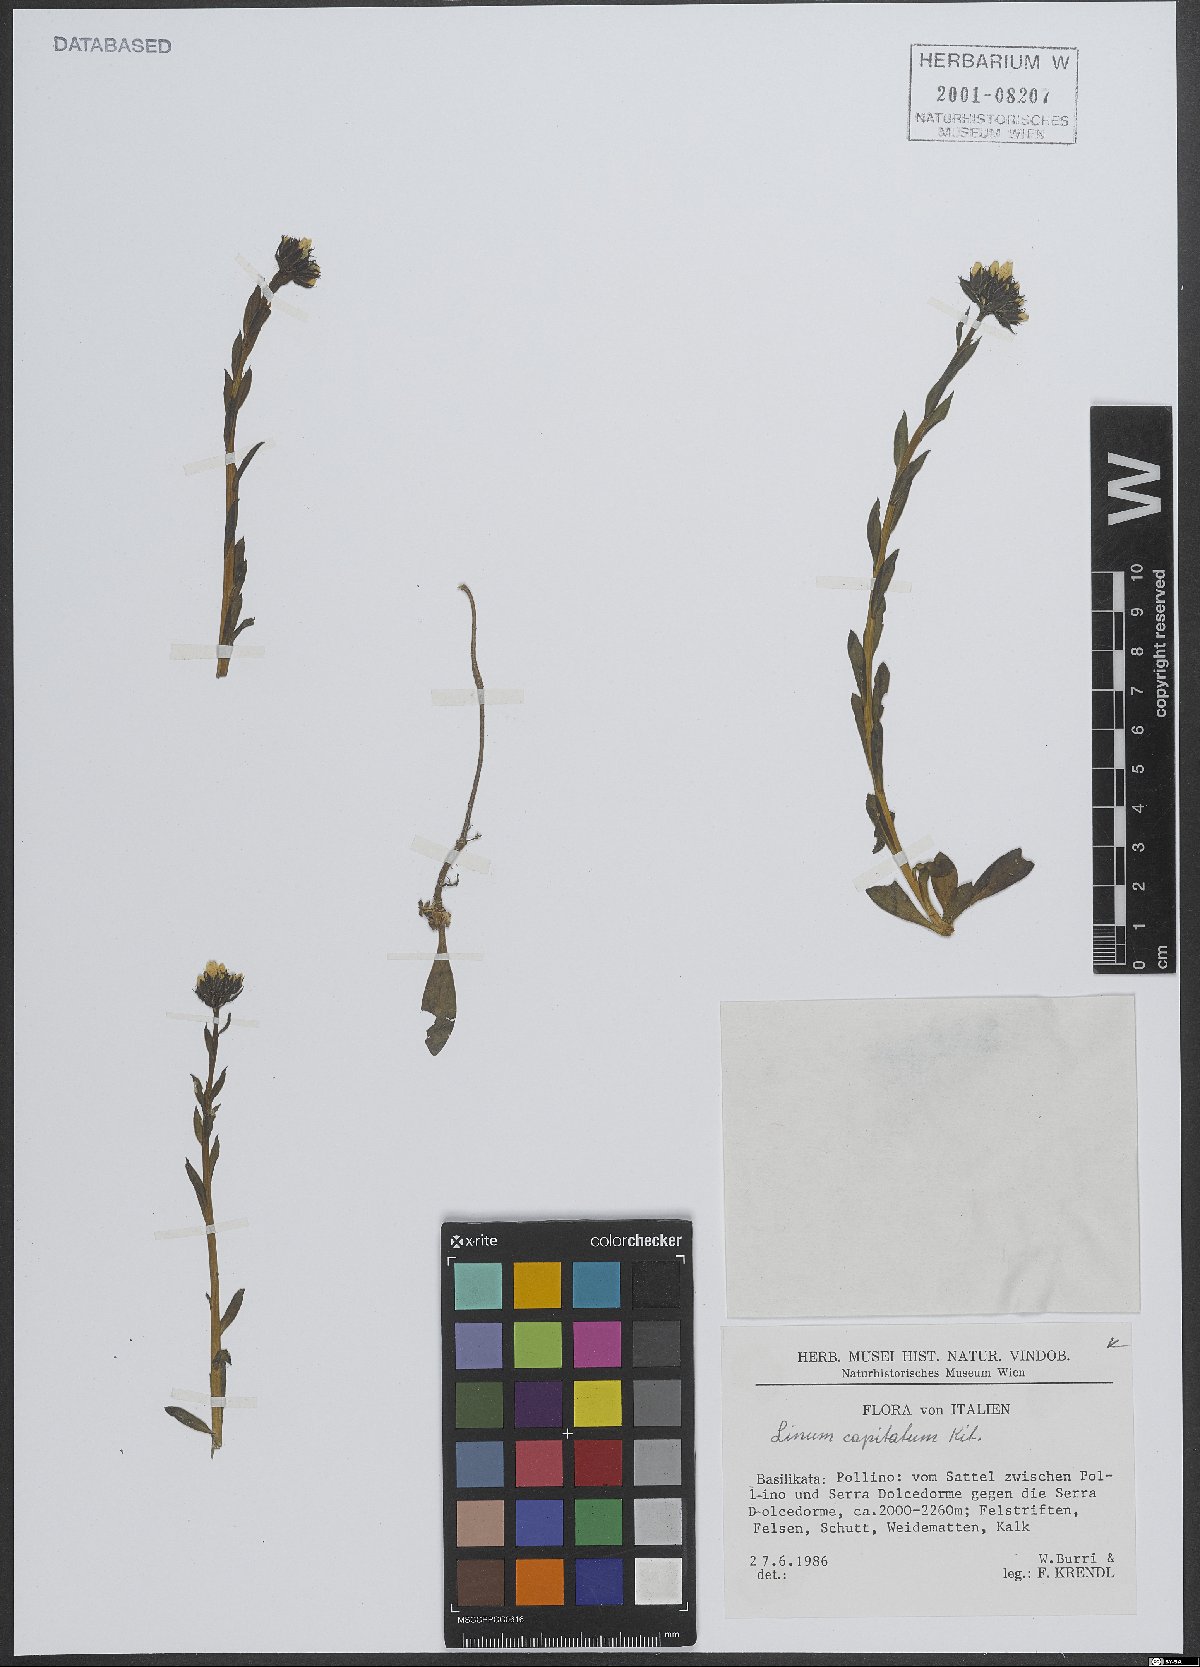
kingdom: Plantae
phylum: Tracheophyta
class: Magnoliopsida
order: Malpighiales
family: Linaceae
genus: Linum
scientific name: Linum capitatum
